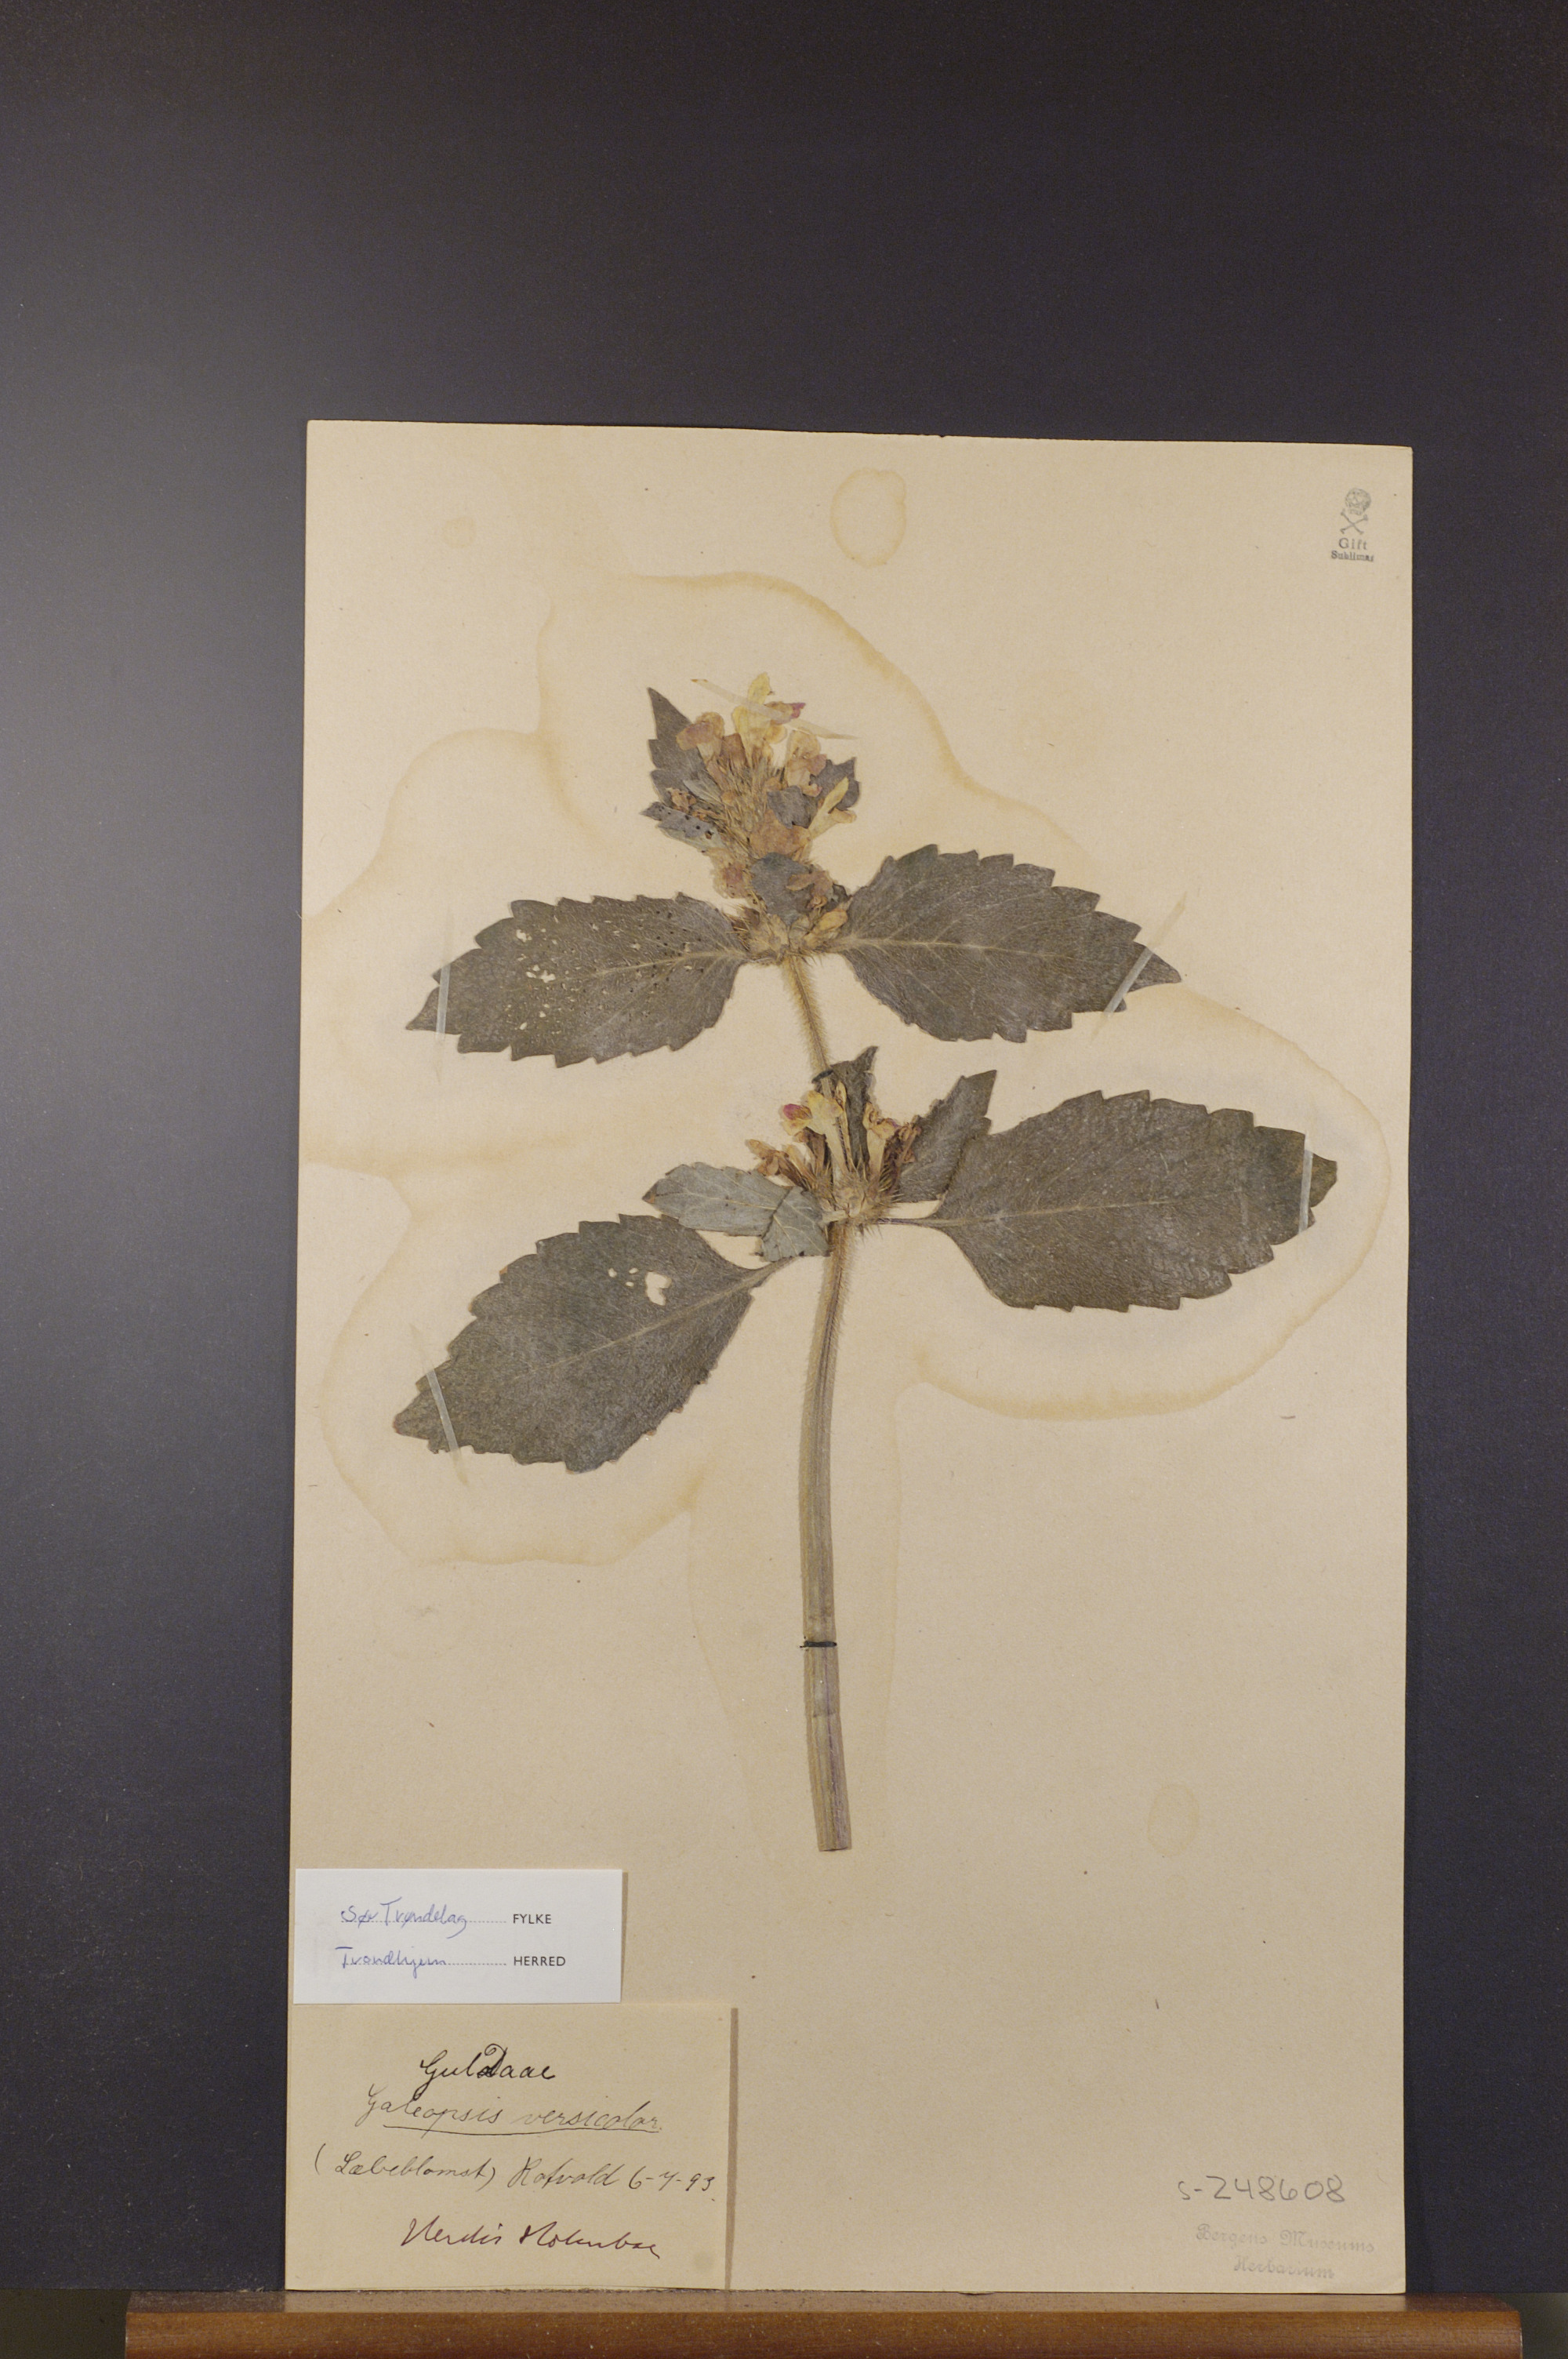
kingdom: Plantae
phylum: Tracheophyta
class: Magnoliopsida
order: Lamiales
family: Lamiaceae
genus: Galeopsis
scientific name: Galeopsis speciosa
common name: Large-flowered hemp-nettle
